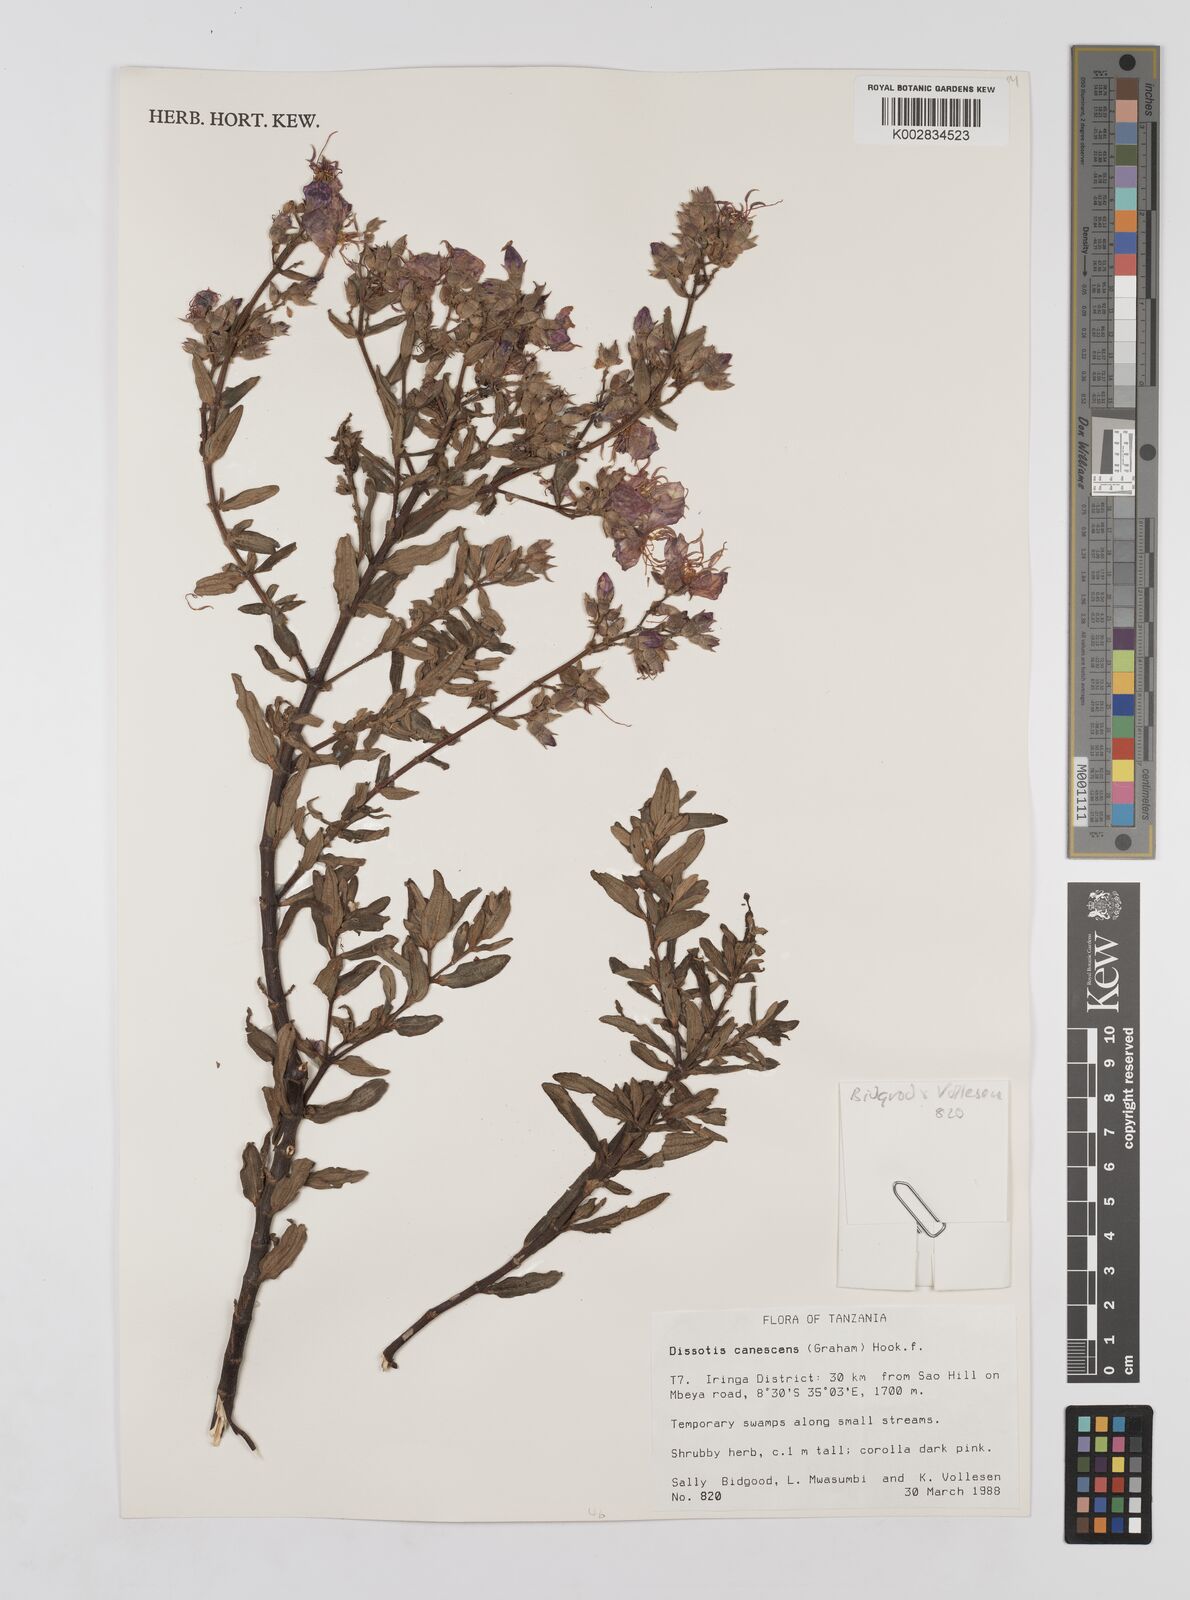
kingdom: Plantae
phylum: Tracheophyta
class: Magnoliopsida
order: Myrtales
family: Melastomataceae
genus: Argyrella
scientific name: Argyrella canescens
